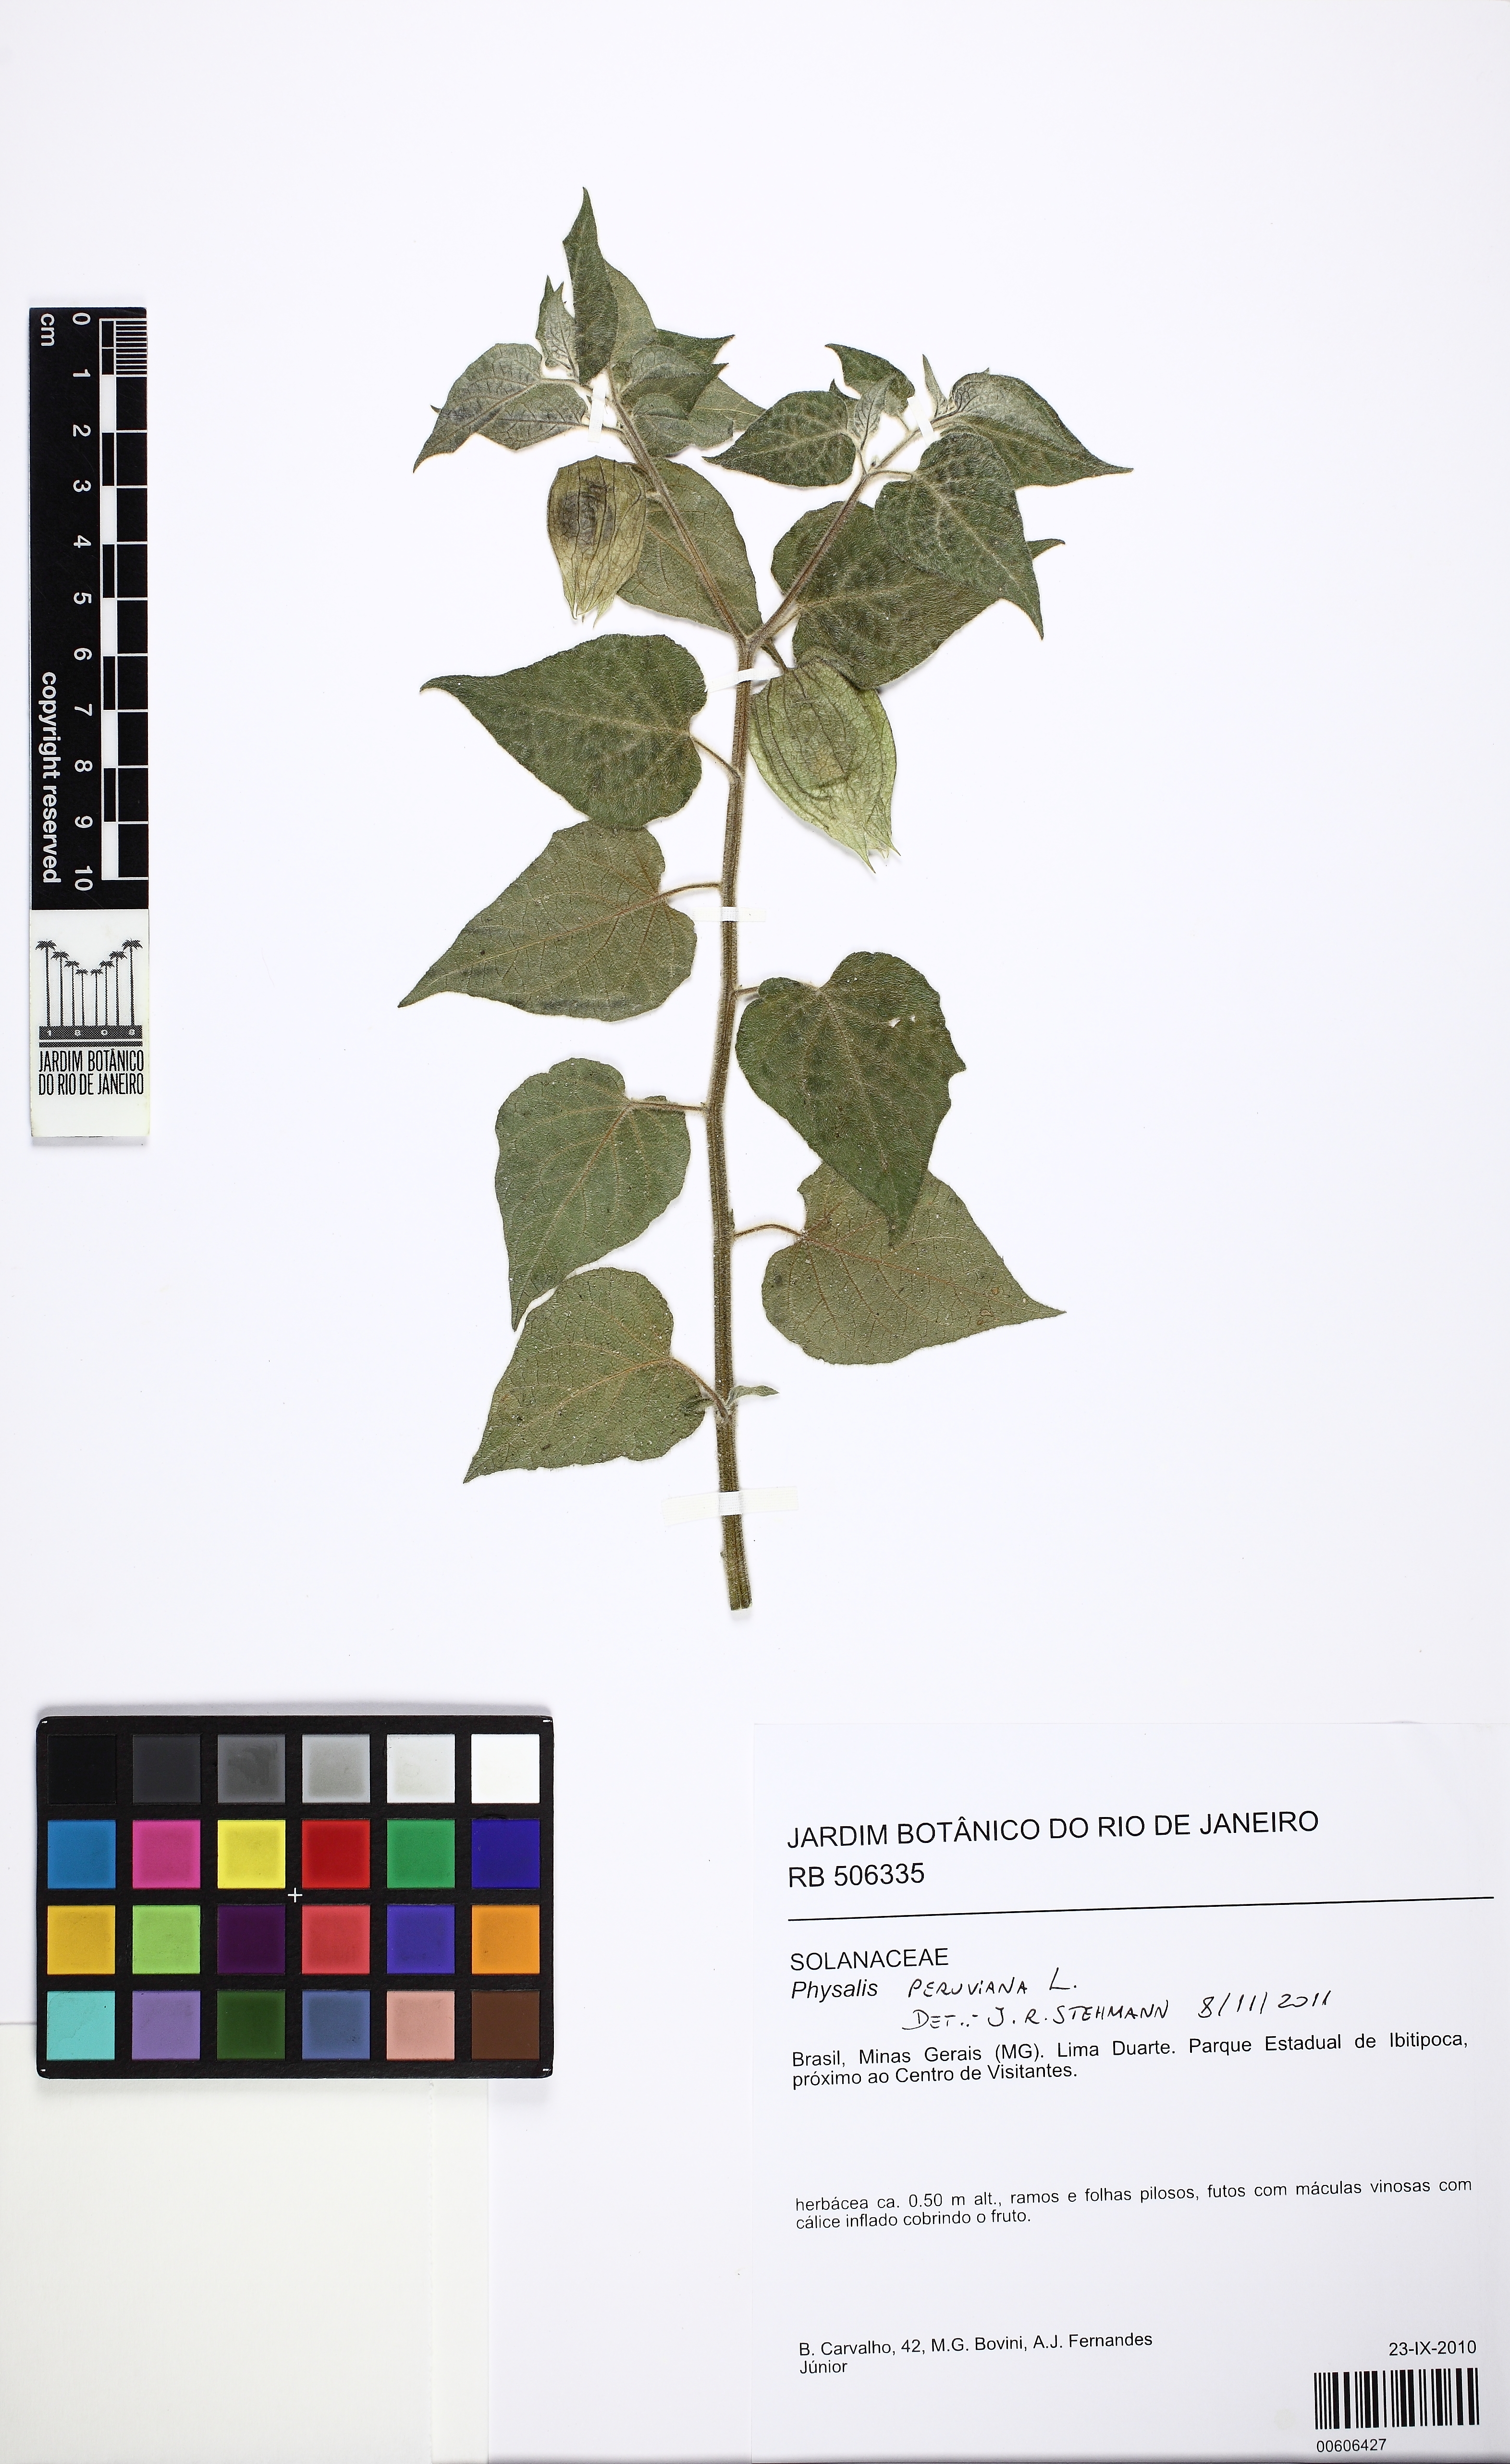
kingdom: Plantae
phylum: Tracheophyta
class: Magnoliopsida
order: Solanales
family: Solanaceae
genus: Physalis
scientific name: Physalis peruviana
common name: Cape-gooseberry
